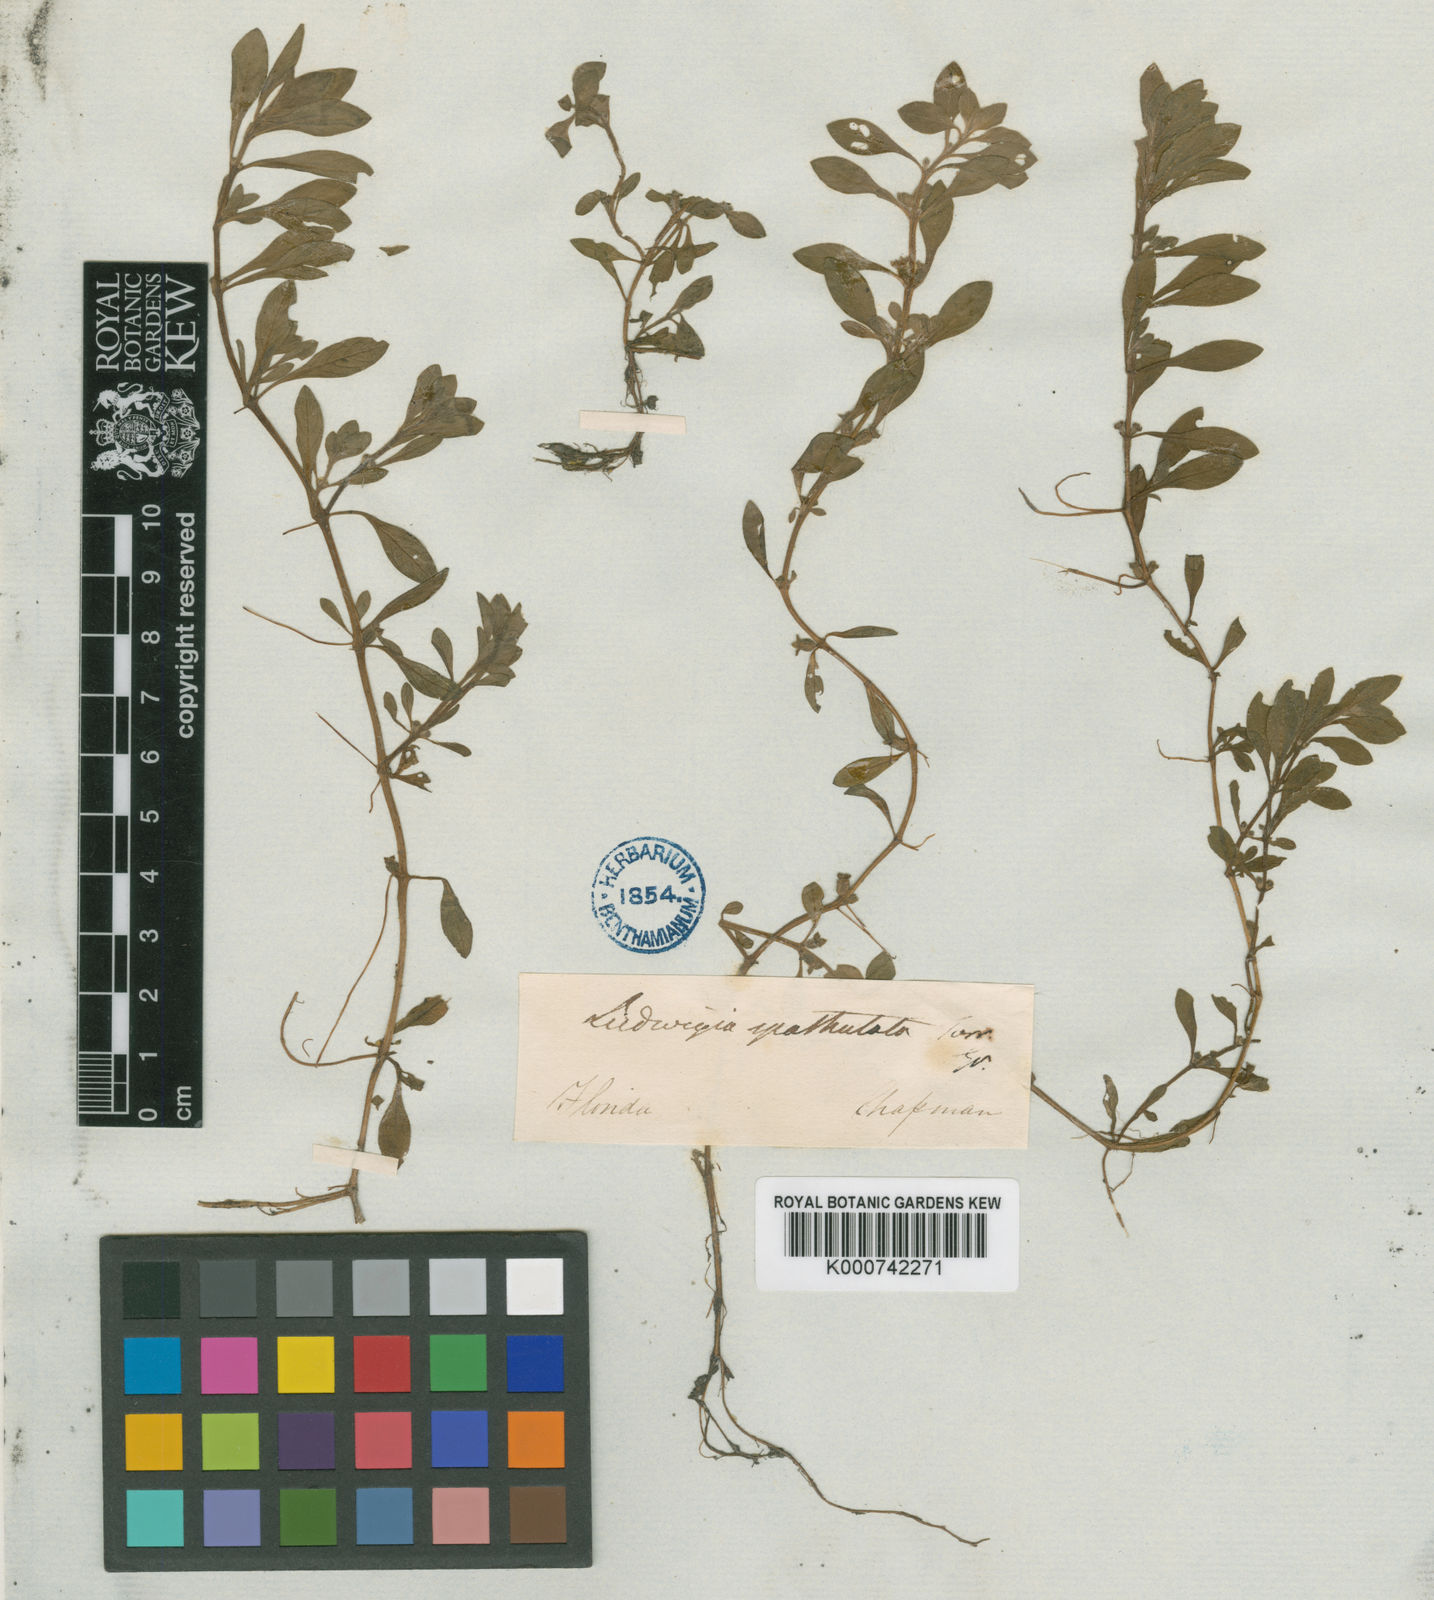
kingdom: Plantae
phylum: Tracheophyta
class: Magnoliopsida
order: Myrtales
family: Onagraceae
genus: Ludwigia
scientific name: Ludwigia
